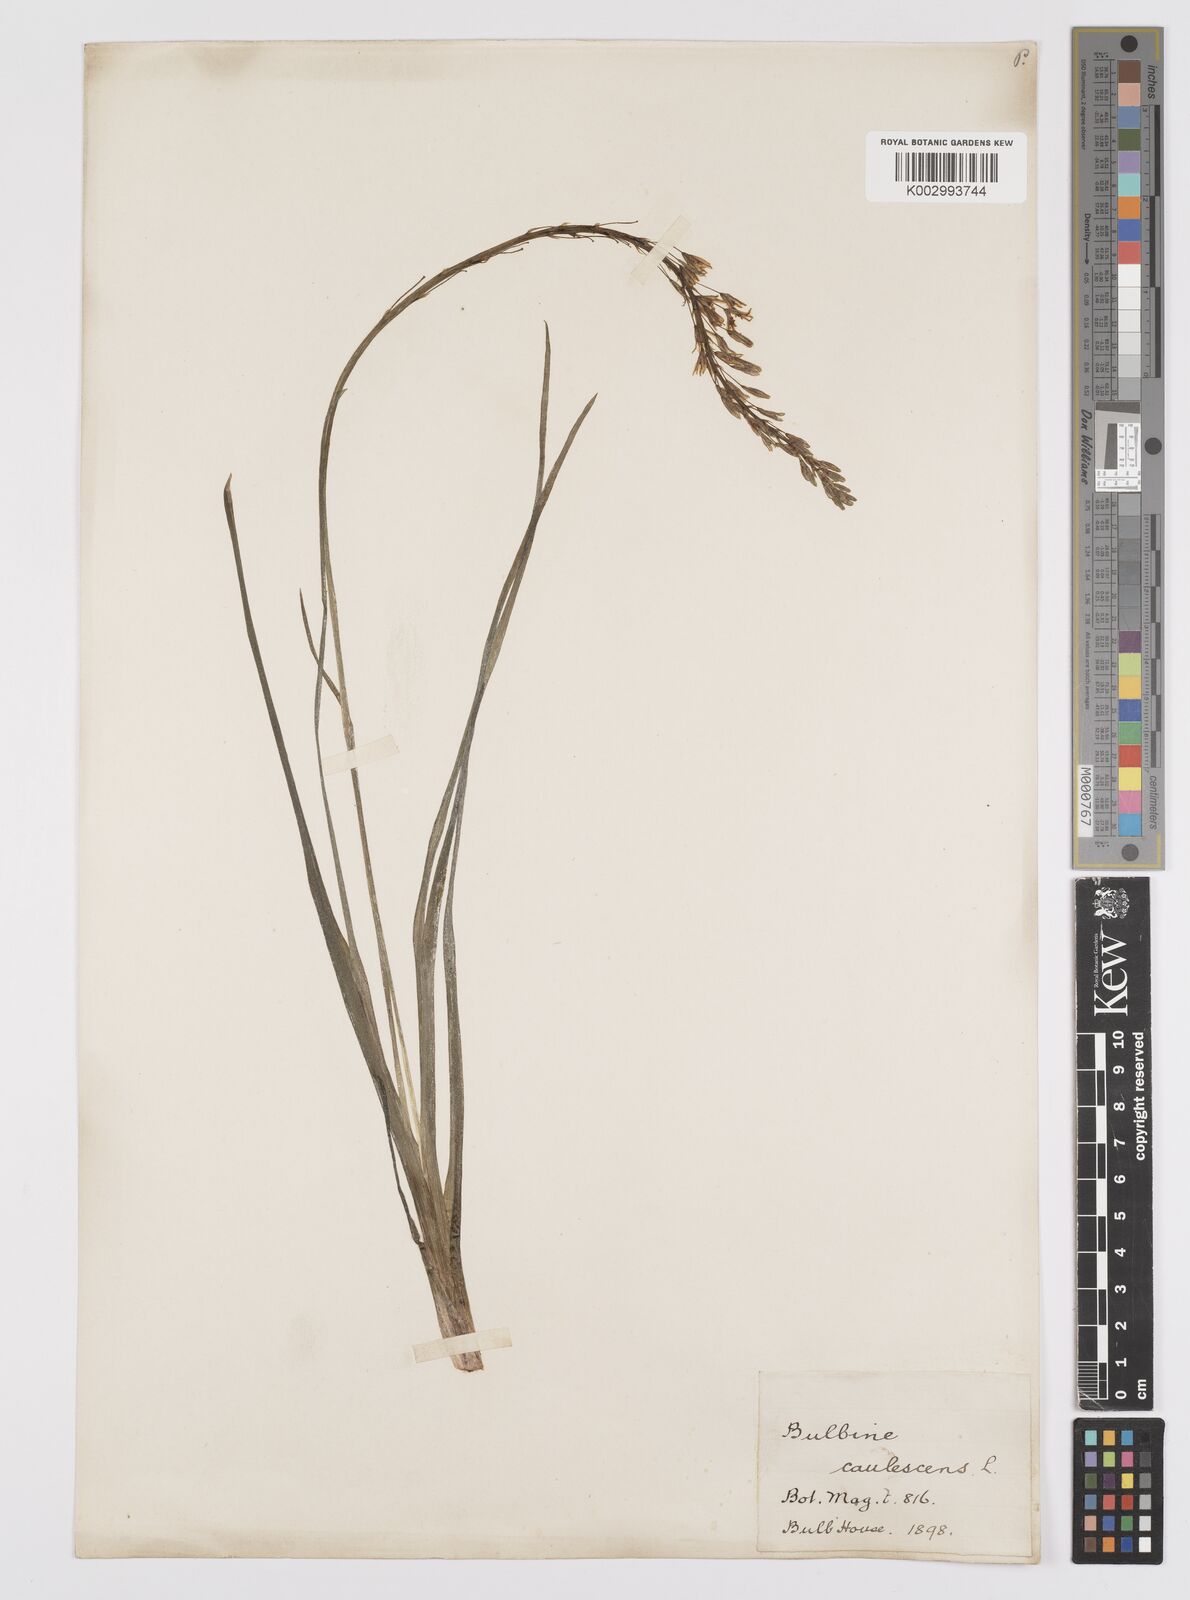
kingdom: Plantae
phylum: Tracheophyta
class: Liliopsida
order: Asparagales
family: Asphodelaceae
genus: Bulbine
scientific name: Bulbine
